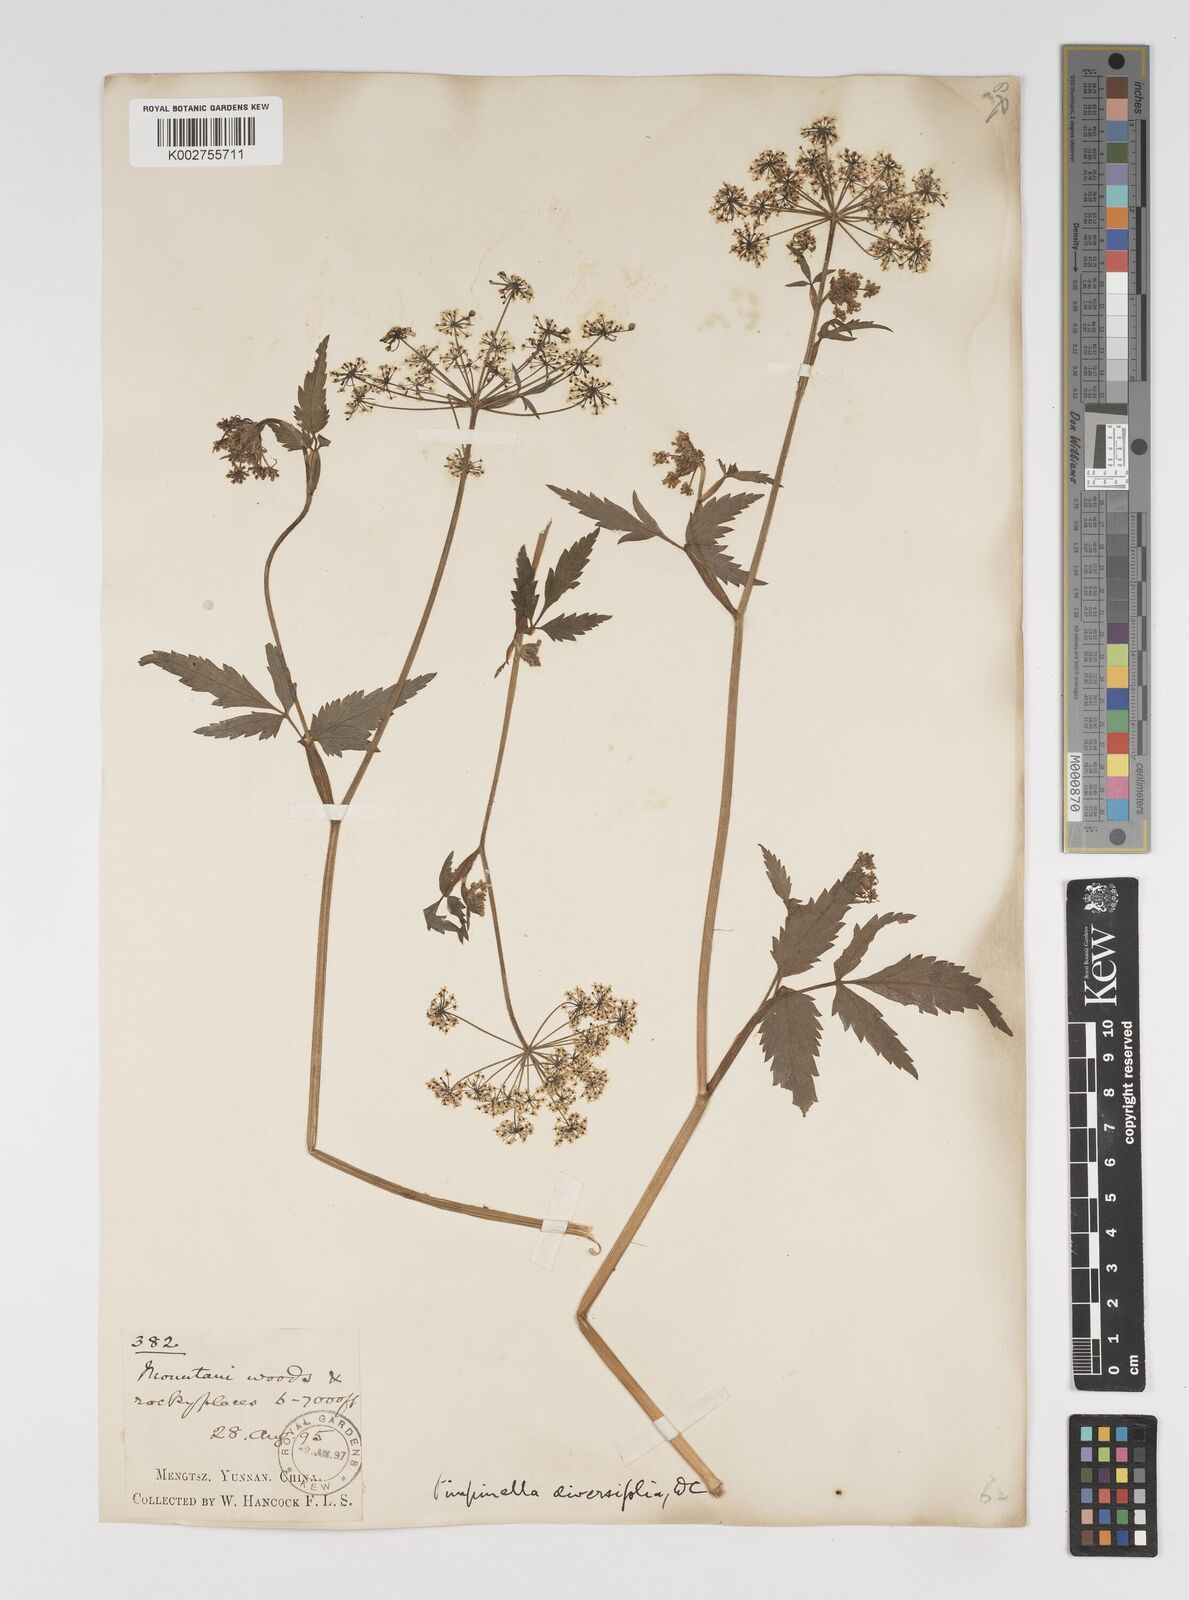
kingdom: Plantae
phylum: Tracheophyta
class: Magnoliopsida
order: Apiales
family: Apiaceae
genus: Pimpinella
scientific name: Pimpinella diversifolia
